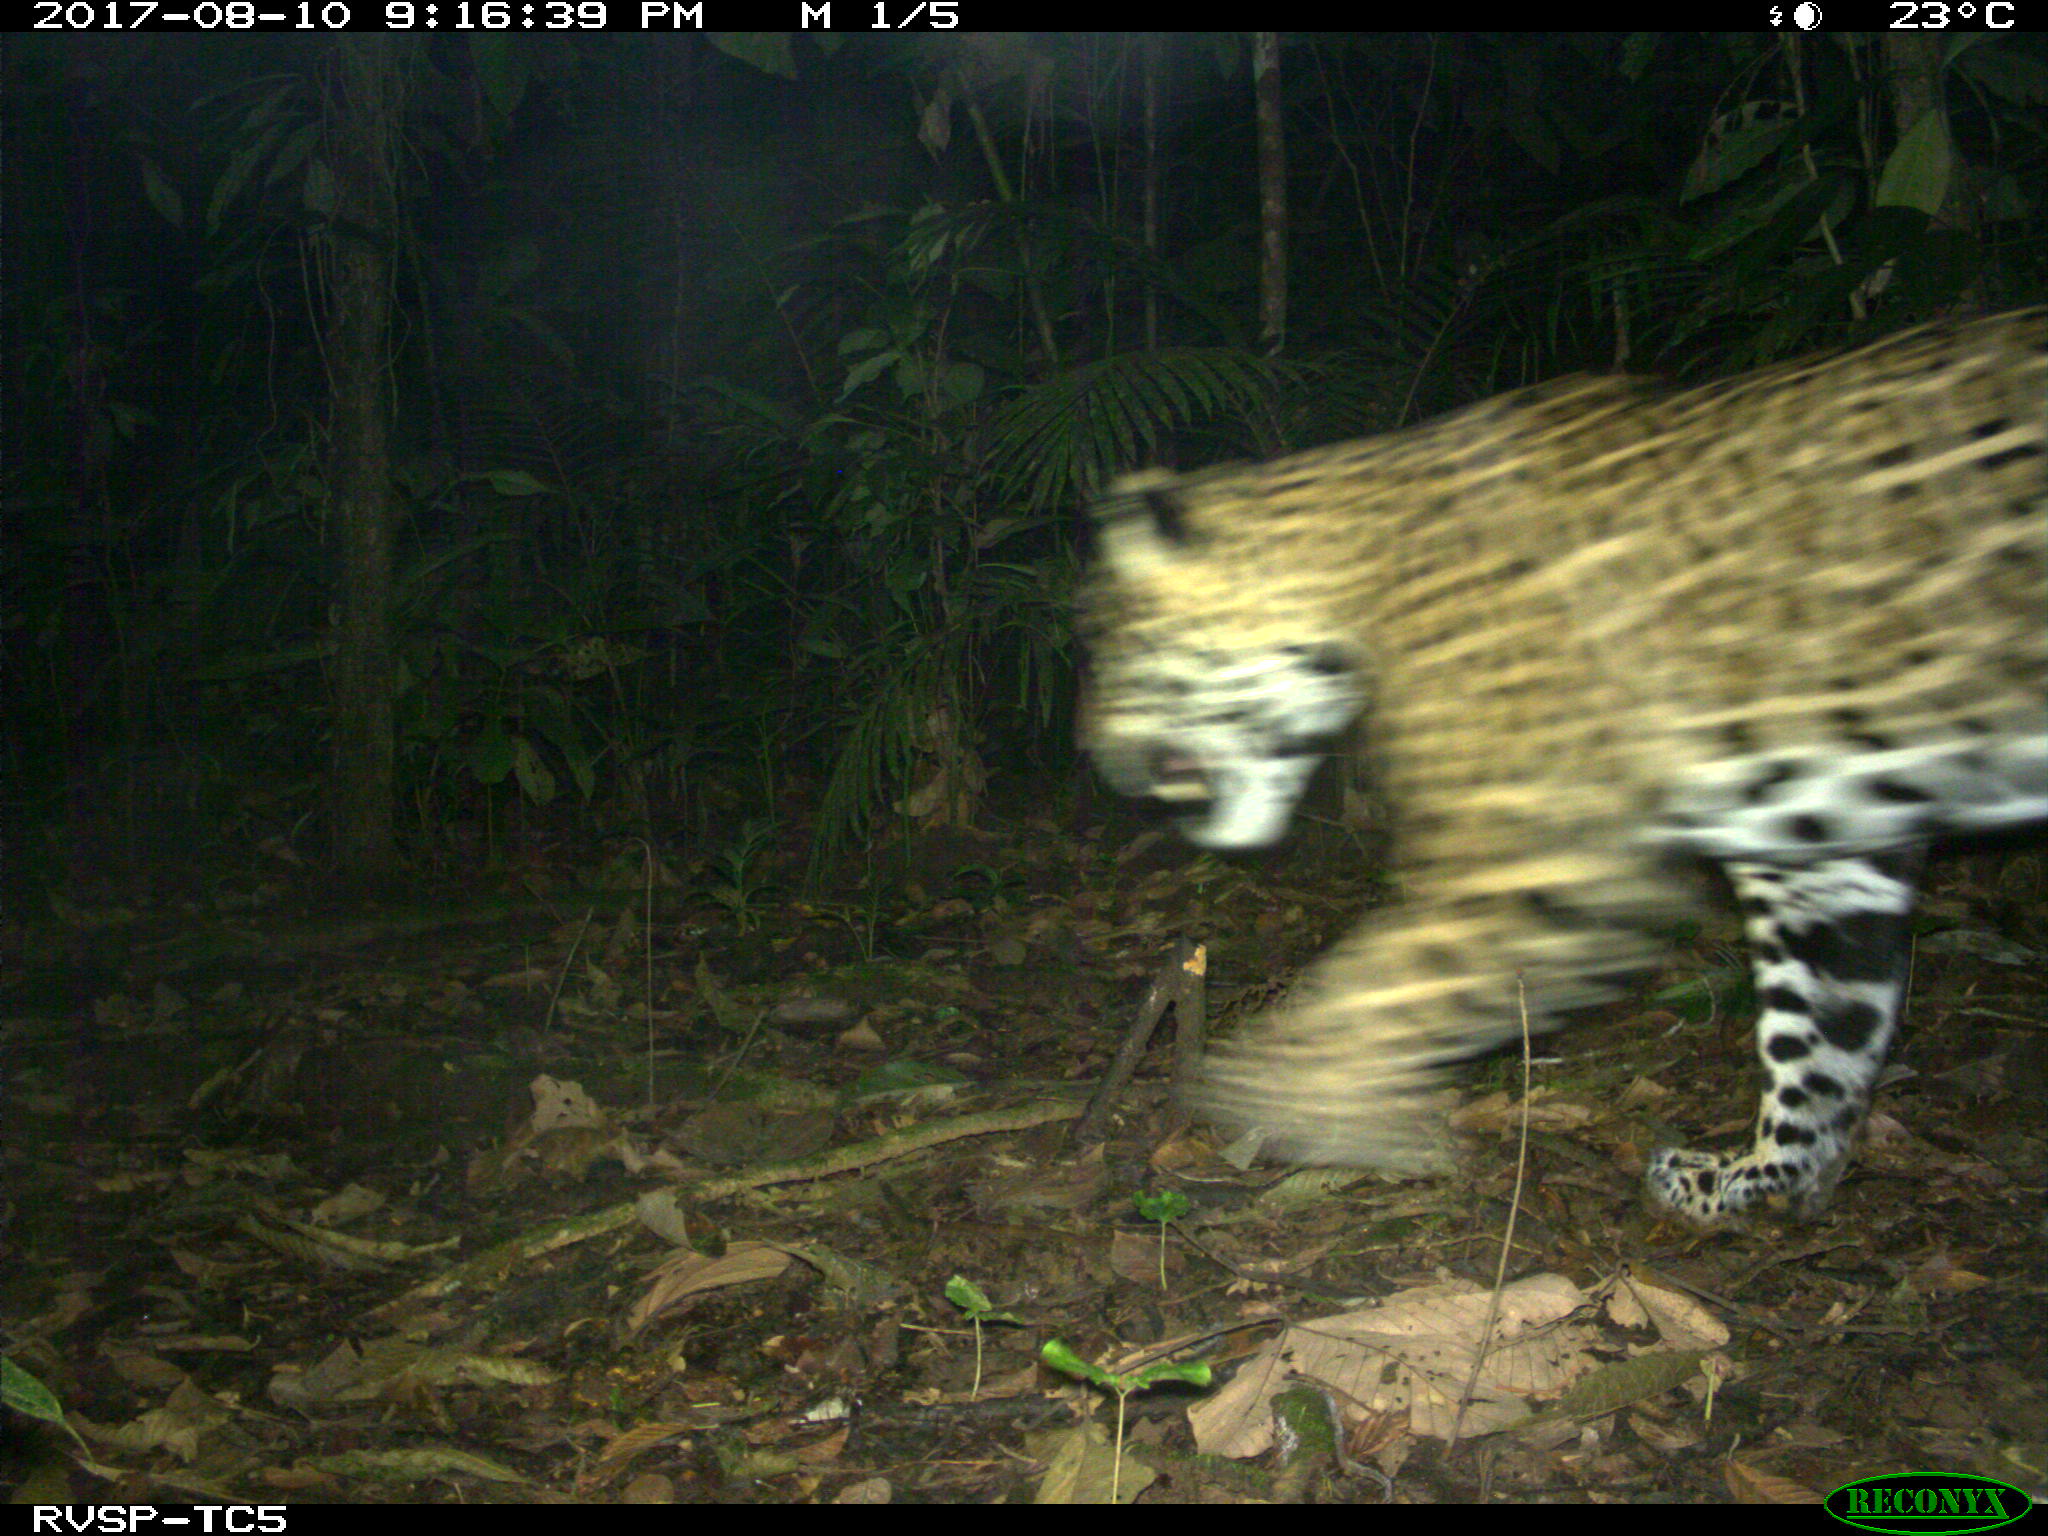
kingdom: Animalia
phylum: Chordata
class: Mammalia
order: Carnivora
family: Felidae
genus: Panthera
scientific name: Panthera onca
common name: Jaguar
